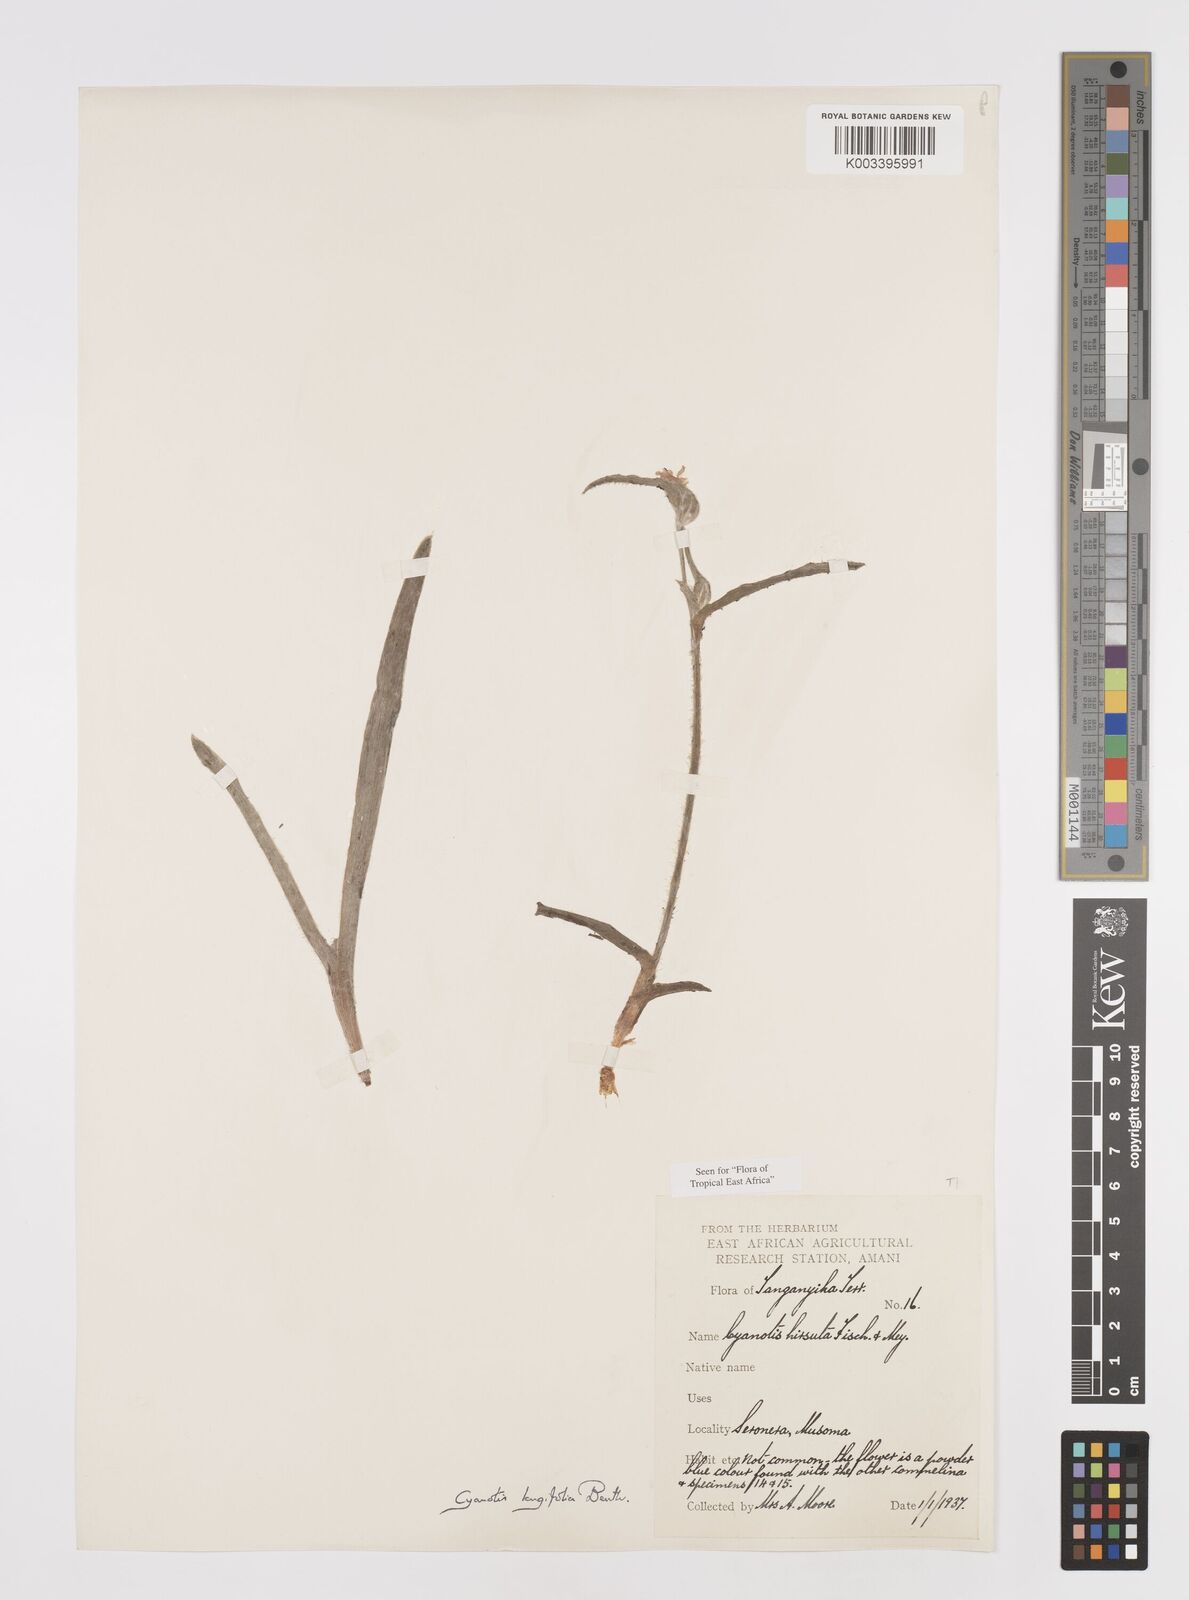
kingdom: Plantae
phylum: Tracheophyta
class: Liliopsida
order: Commelinales
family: Commelinaceae
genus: Cyanotis
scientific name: Cyanotis longifolia
